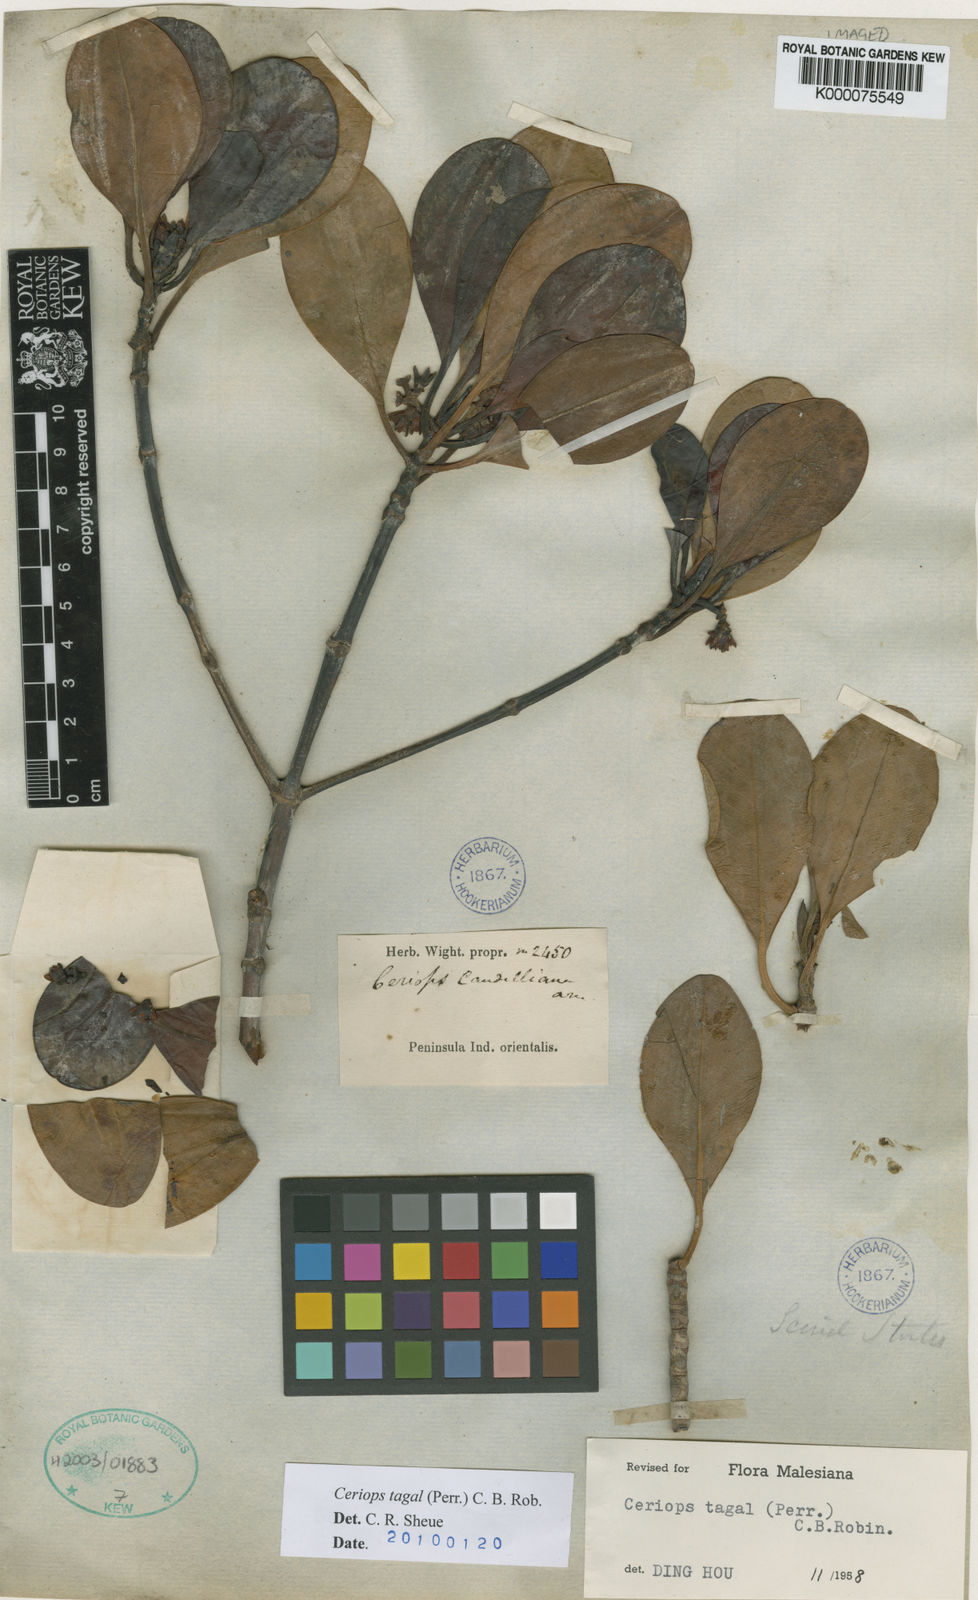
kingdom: Plantae
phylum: Tracheophyta
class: Magnoliopsida
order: Malpighiales
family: Rhizophoraceae
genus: Ceriops
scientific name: Ceriops tagal
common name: Spurred mangrove
